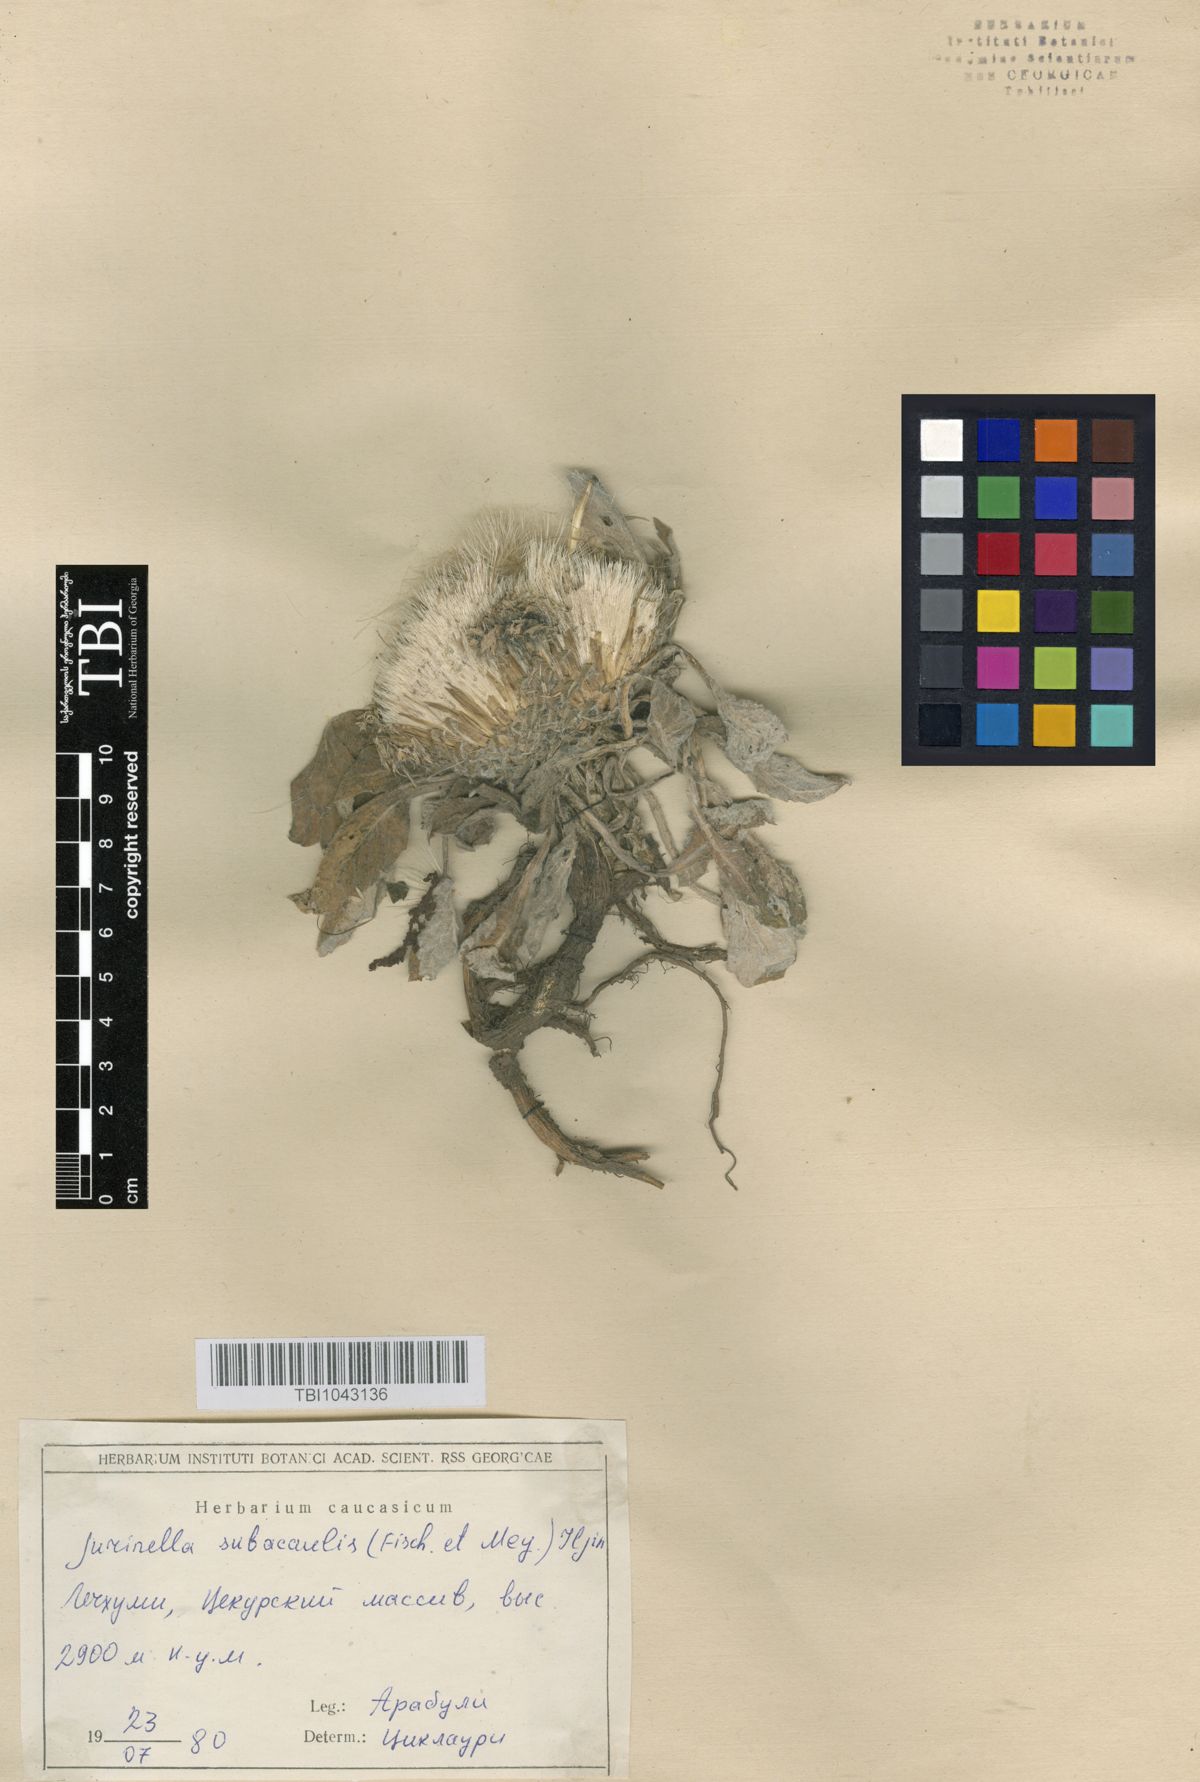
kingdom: Plantae
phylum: Tracheophyta
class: Magnoliopsida
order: Asterales
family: Asteraceae
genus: Jurinea
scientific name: Jurinea moschus
